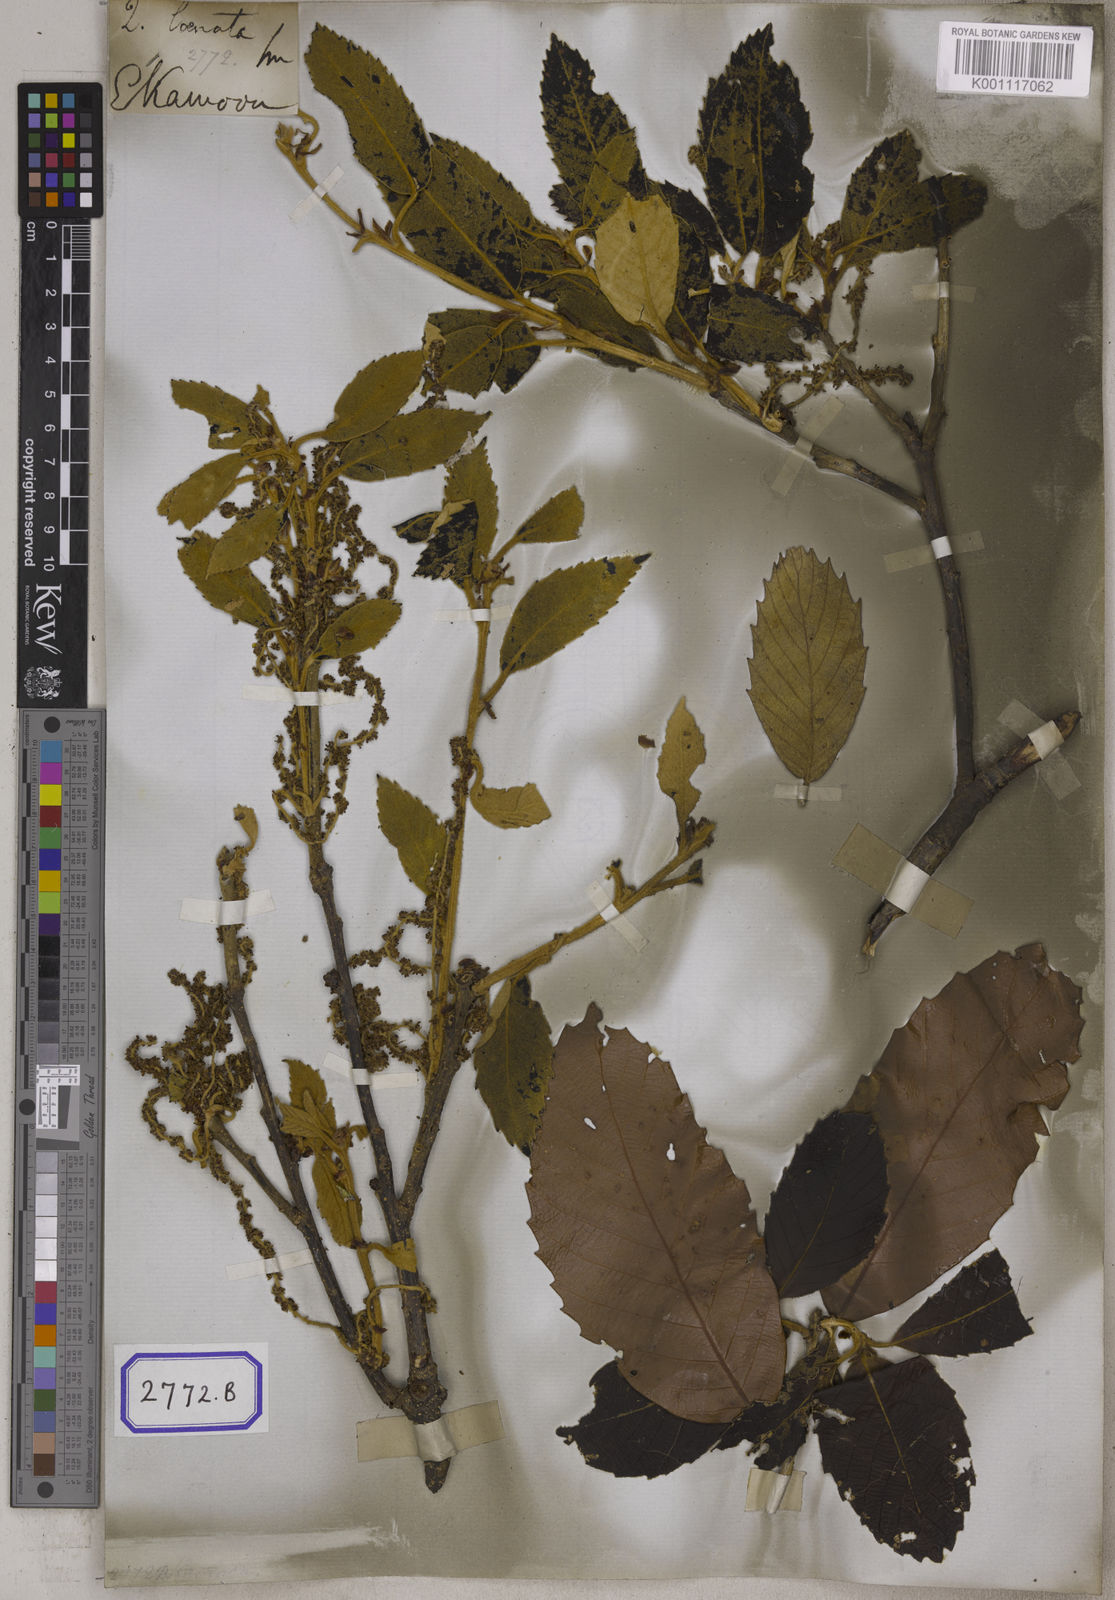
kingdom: Plantae
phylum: Tracheophyta
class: Magnoliopsida
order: Fagales
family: Fagaceae
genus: Quercus
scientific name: Quercus lanata
